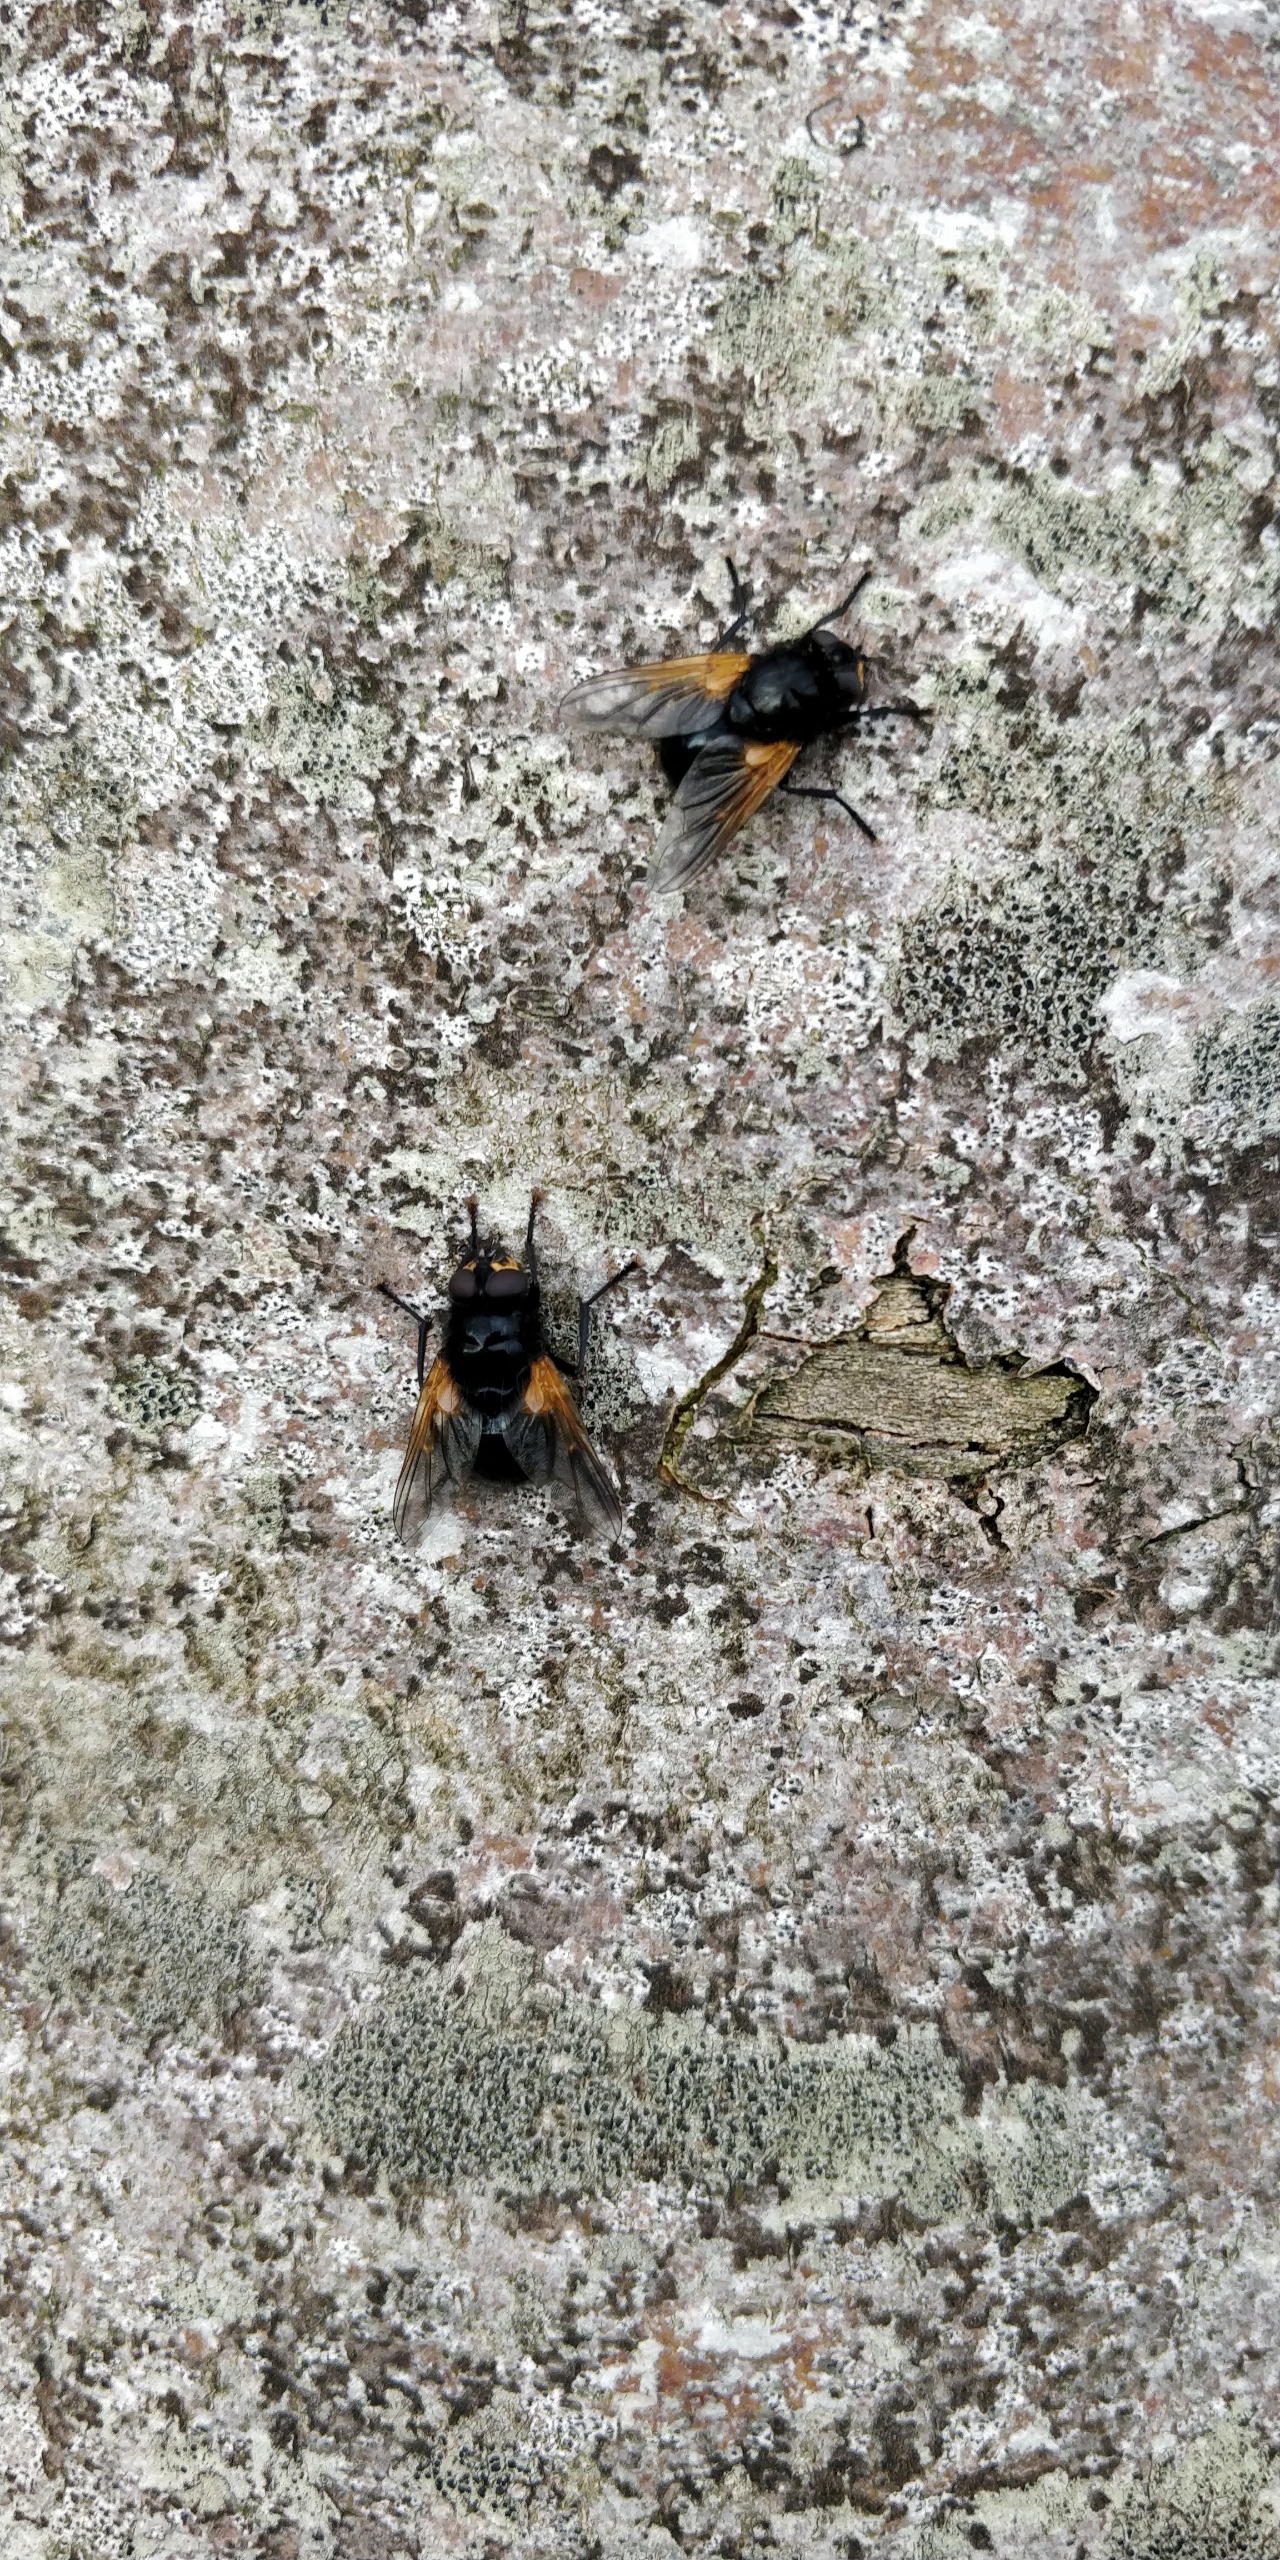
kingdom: Animalia
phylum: Arthropoda
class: Insecta
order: Diptera
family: Muscidae
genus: Mesembrina
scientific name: Mesembrina meridiana
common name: Gulvinget flue
